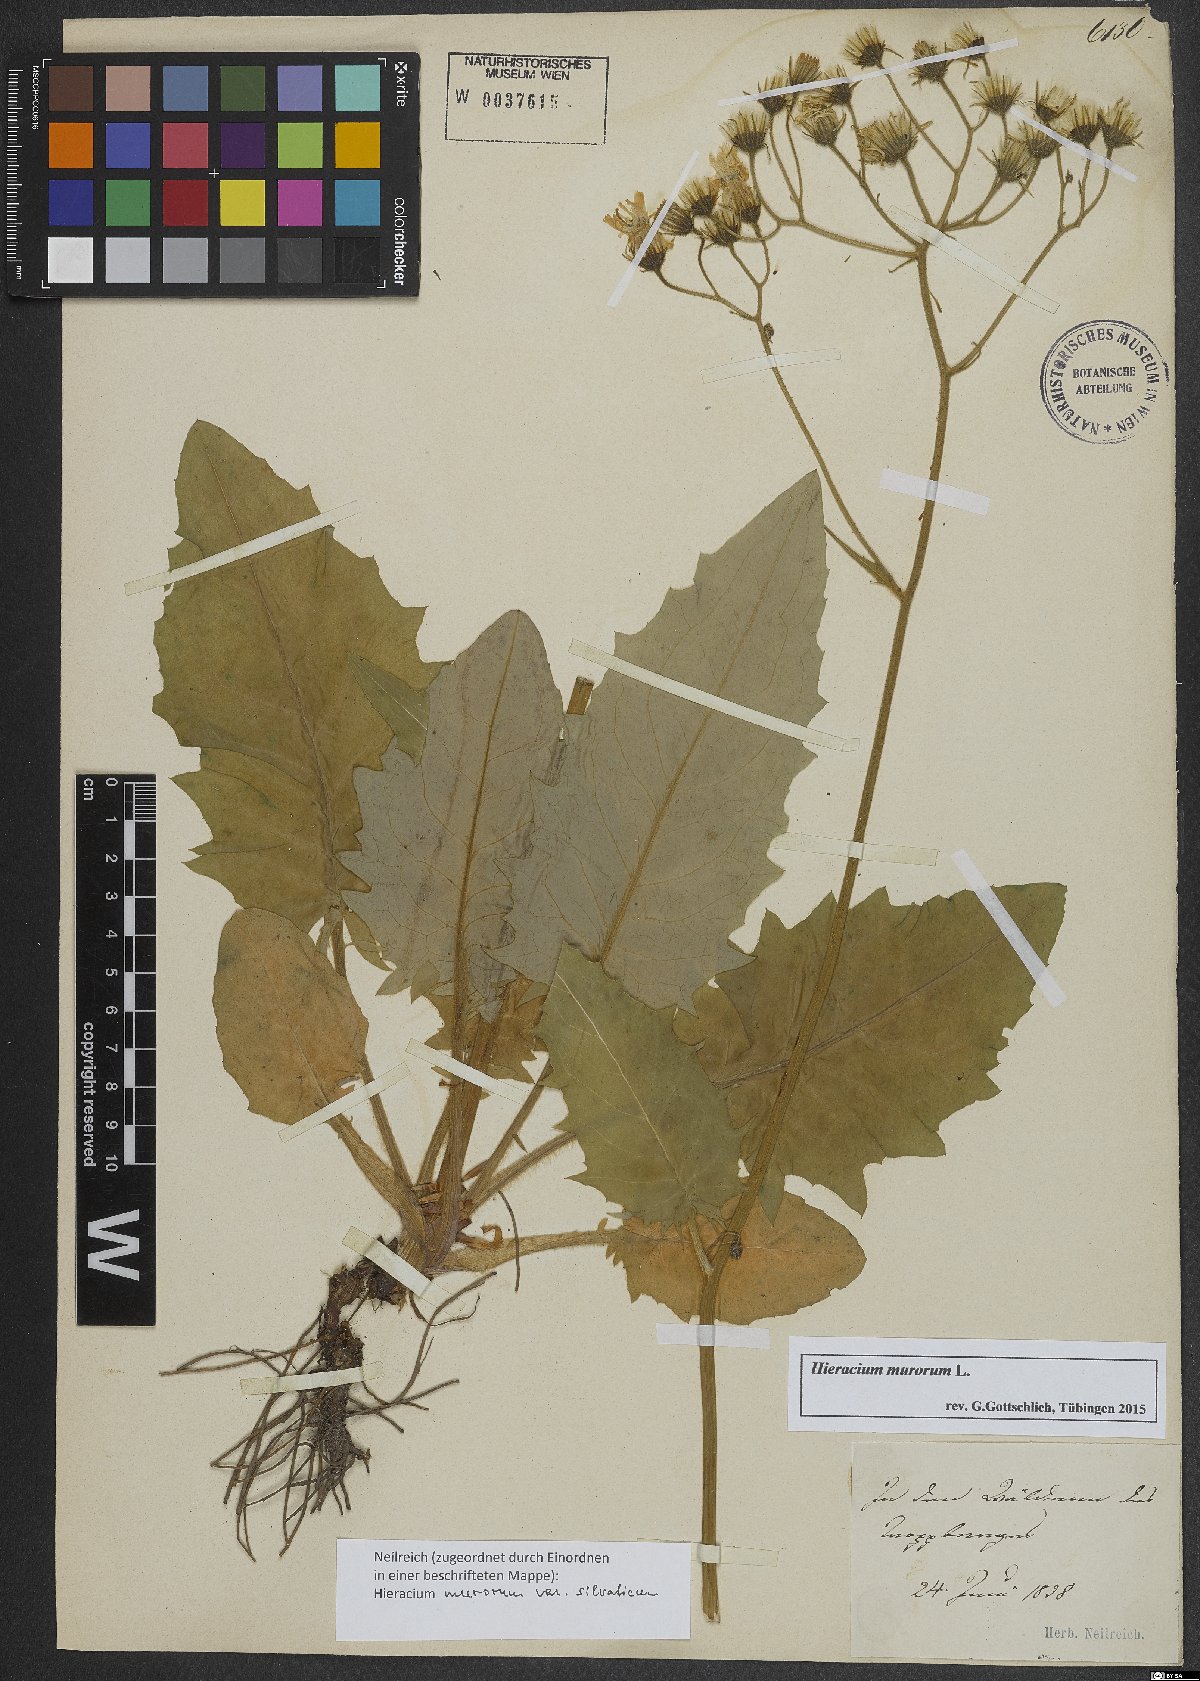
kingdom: Plantae
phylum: Tracheophyta
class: Magnoliopsida
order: Asterales
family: Asteraceae
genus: Hieracium
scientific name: Hieracium murorum
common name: Wall hawkweed
